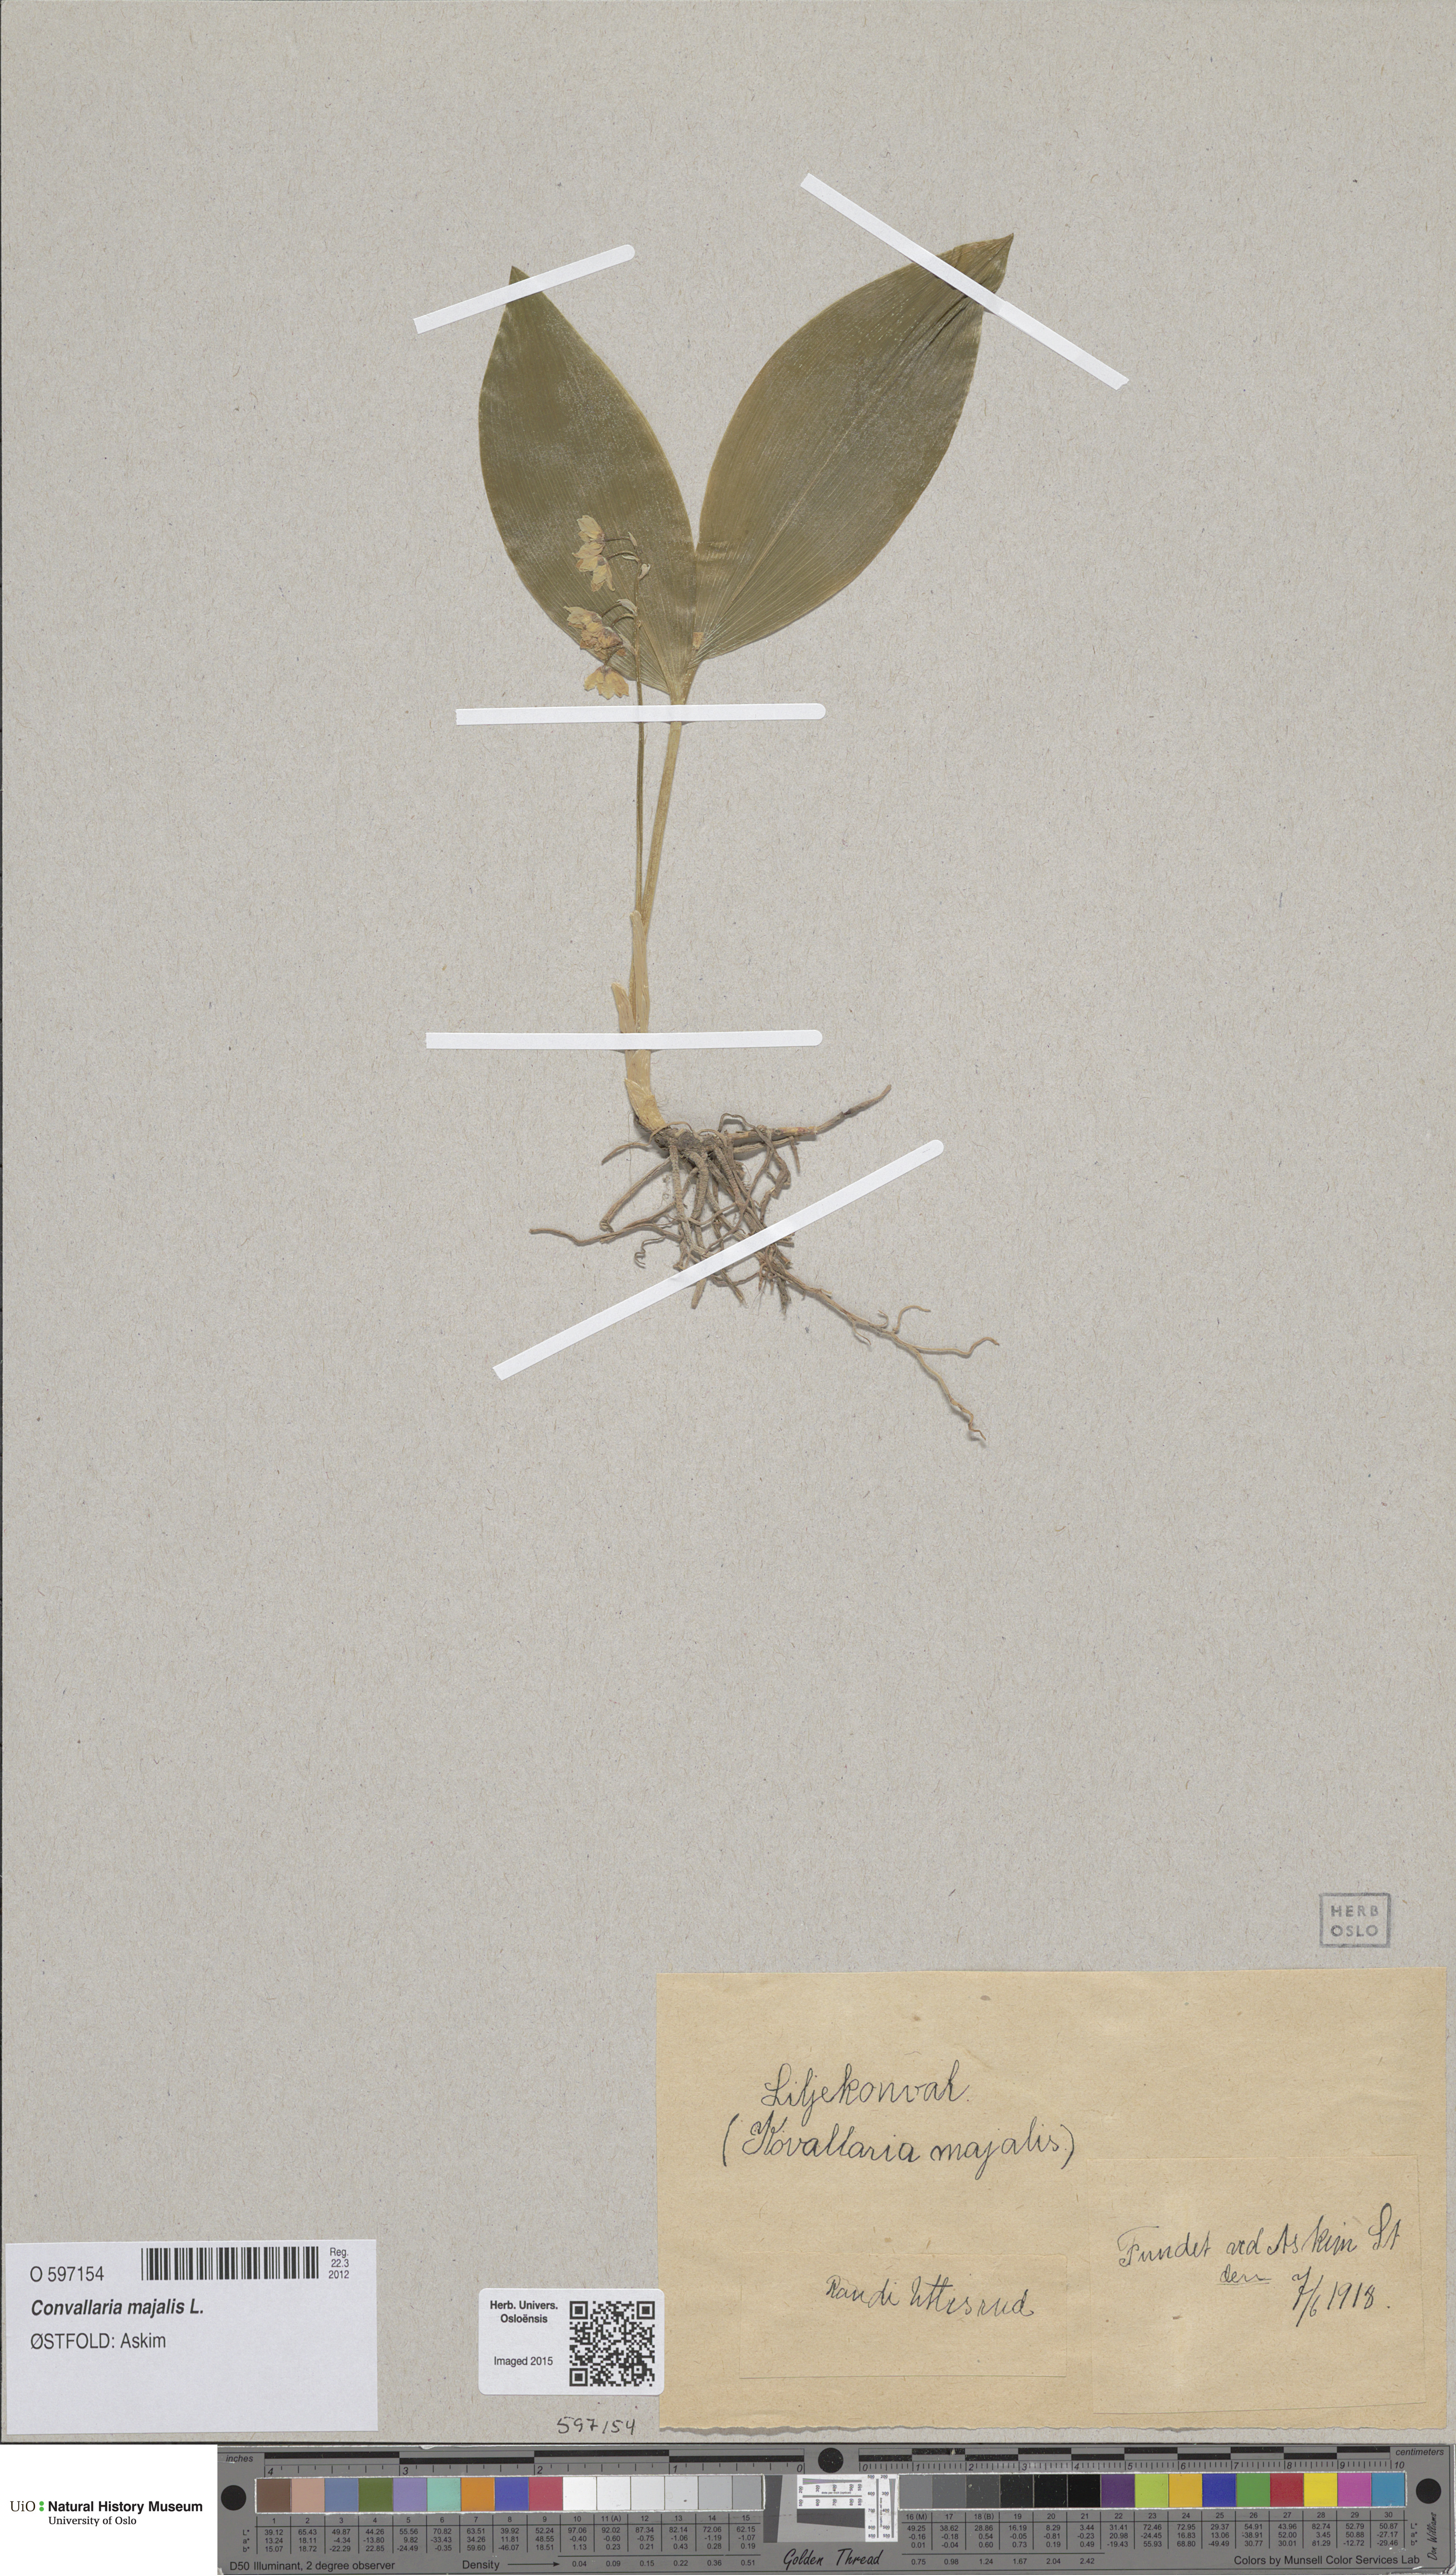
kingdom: Plantae
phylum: Tracheophyta
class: Liliopsida
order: Asparagales
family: Asparagaceae
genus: Convallaria
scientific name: Convallaria majalis
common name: Lily-of-the-valley
